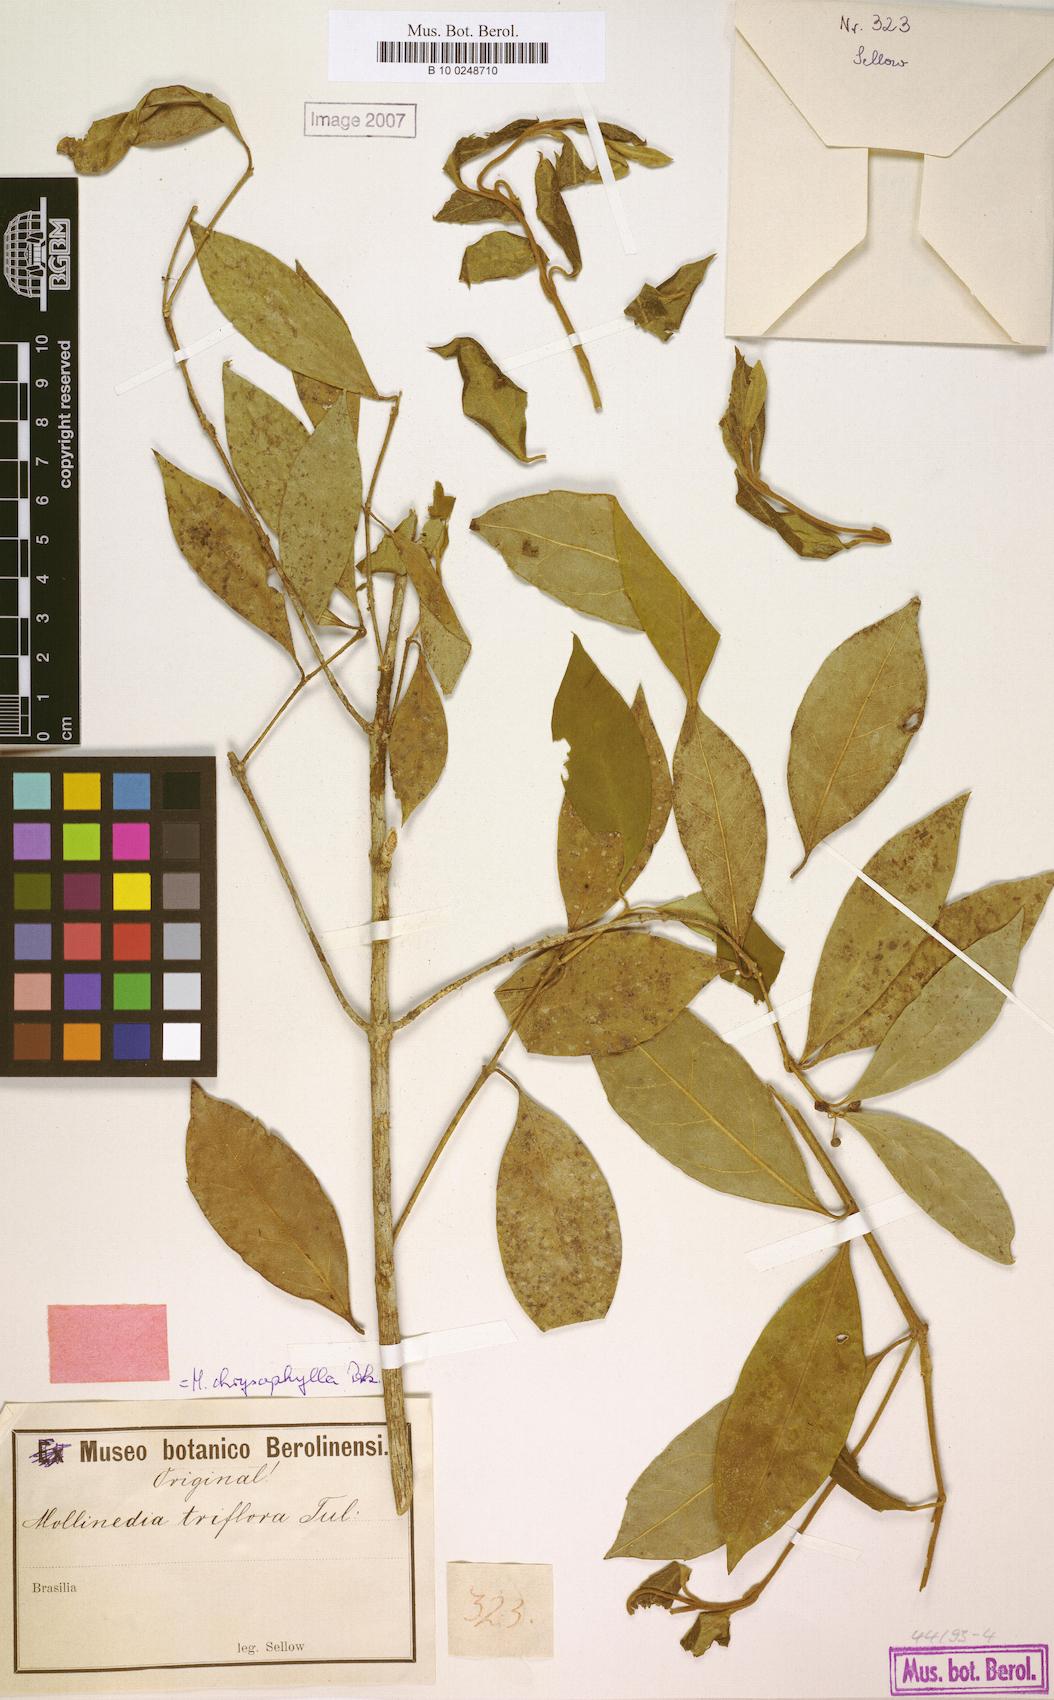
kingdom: Plantae
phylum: Tracheophyta
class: Magnoliopsida
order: Laurales
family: Monimiaceae
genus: Mollinedia
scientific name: Mollinedia triflora
